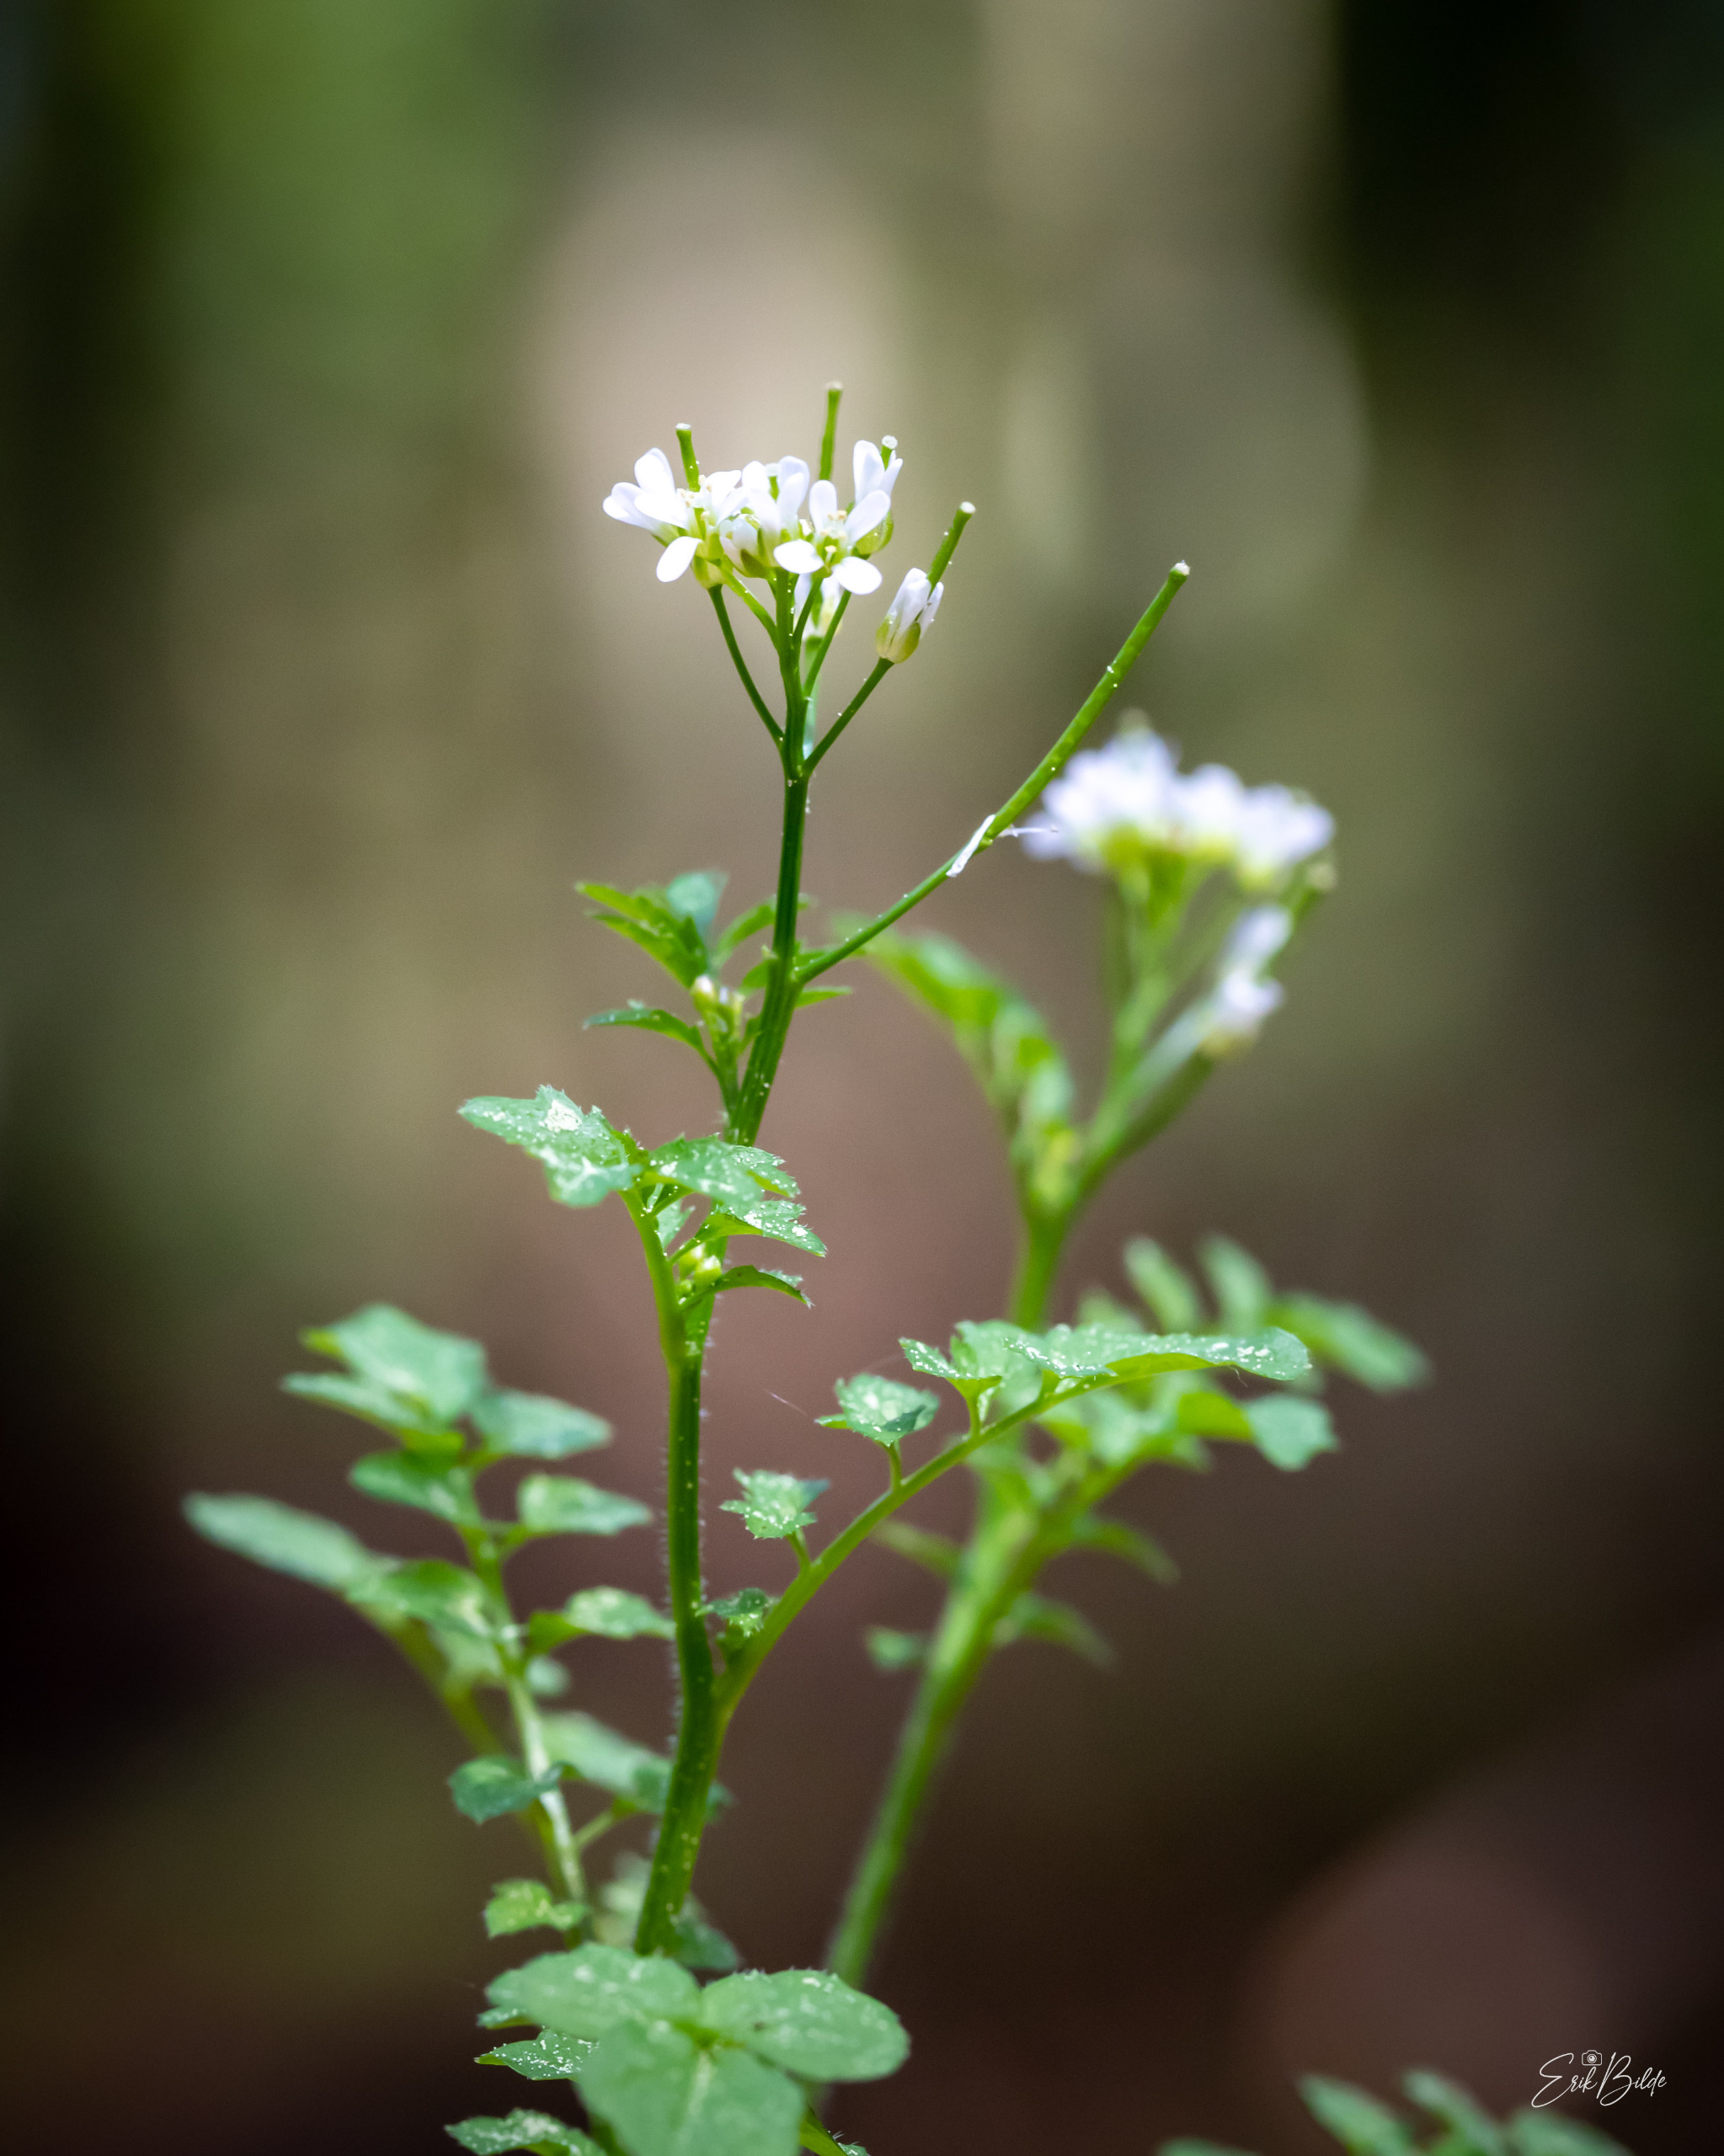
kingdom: Plantae
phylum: Tracheophyta
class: Magnoliopsida
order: Brassicales
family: Brassicaceae
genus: Cardamine
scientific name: Cardamine flexuosa
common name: Skov-springklap
